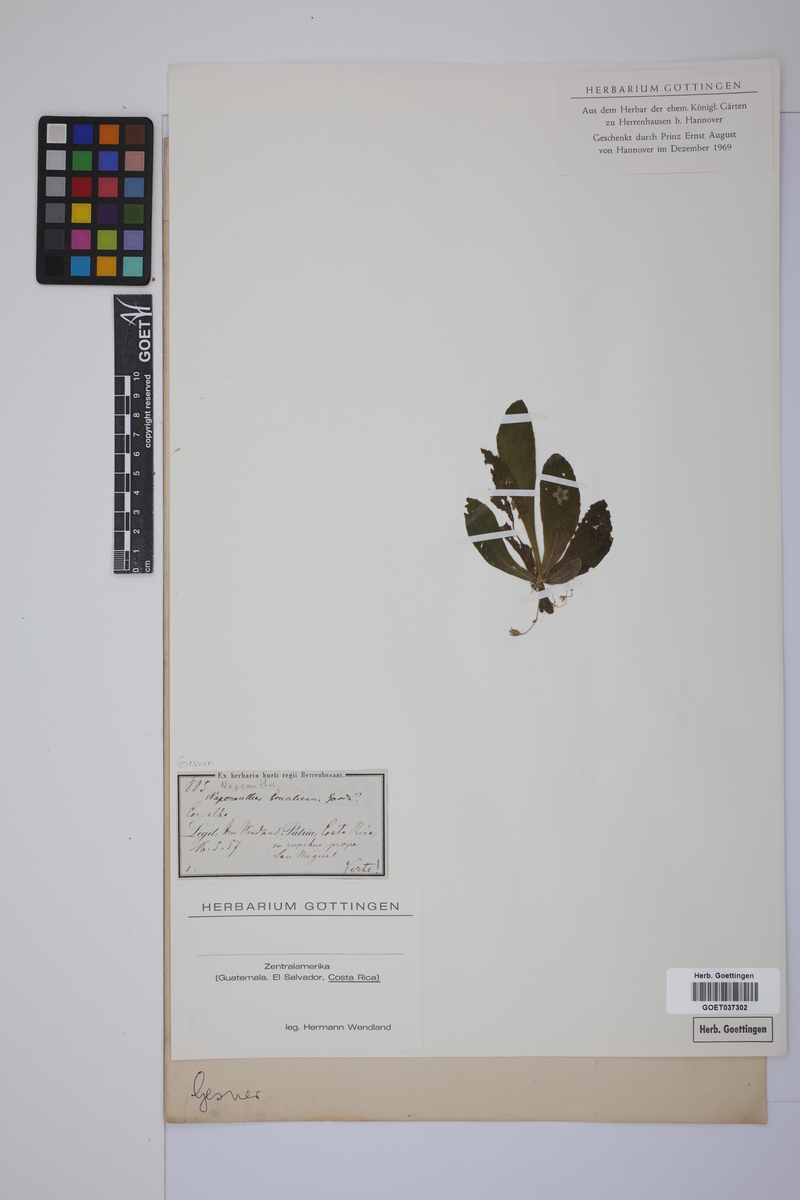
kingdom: Plantae
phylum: Tracheophyta
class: Magnoliopsida
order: Lamiales
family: Gesneriaceae
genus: Napeanthus
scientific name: Napeanthus primulifolius
